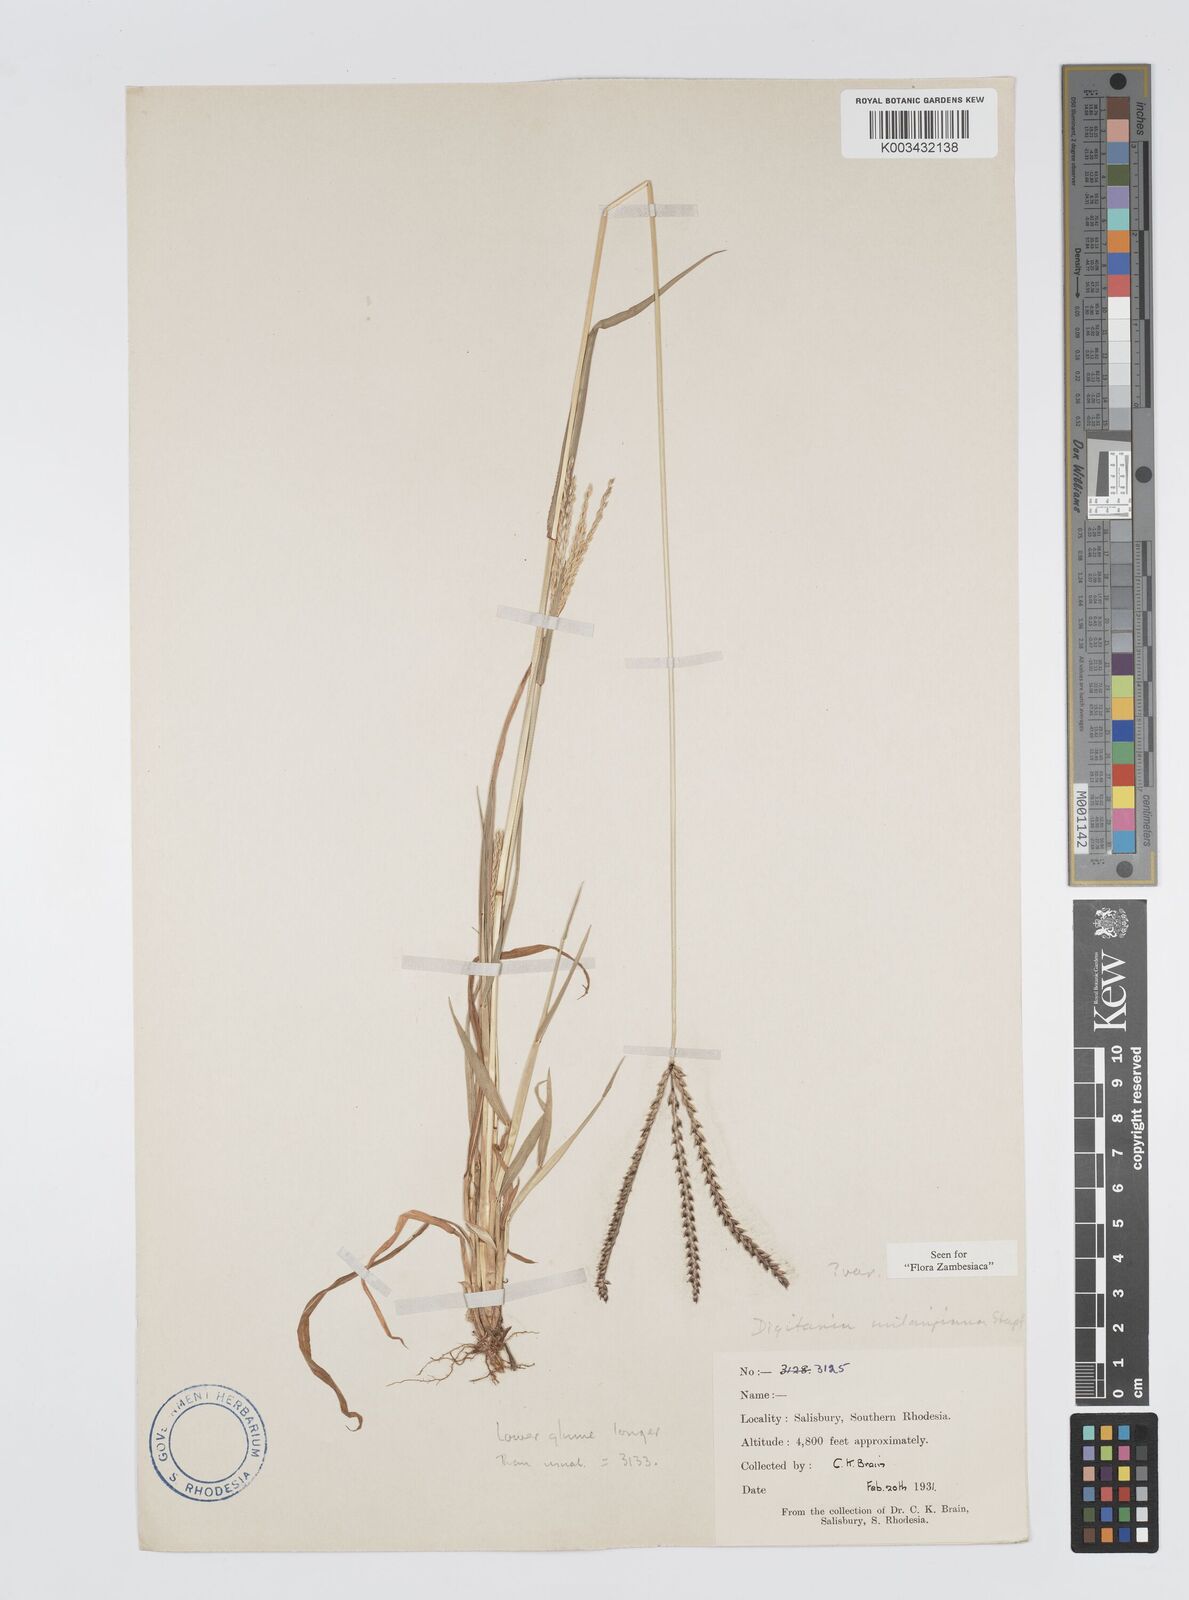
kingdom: Plantae
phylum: Tracheophyta
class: Liliopsida
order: Poales
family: Poaceae
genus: Digitaria
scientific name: Digitaria milanjiana
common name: Madagascar crabgrass
